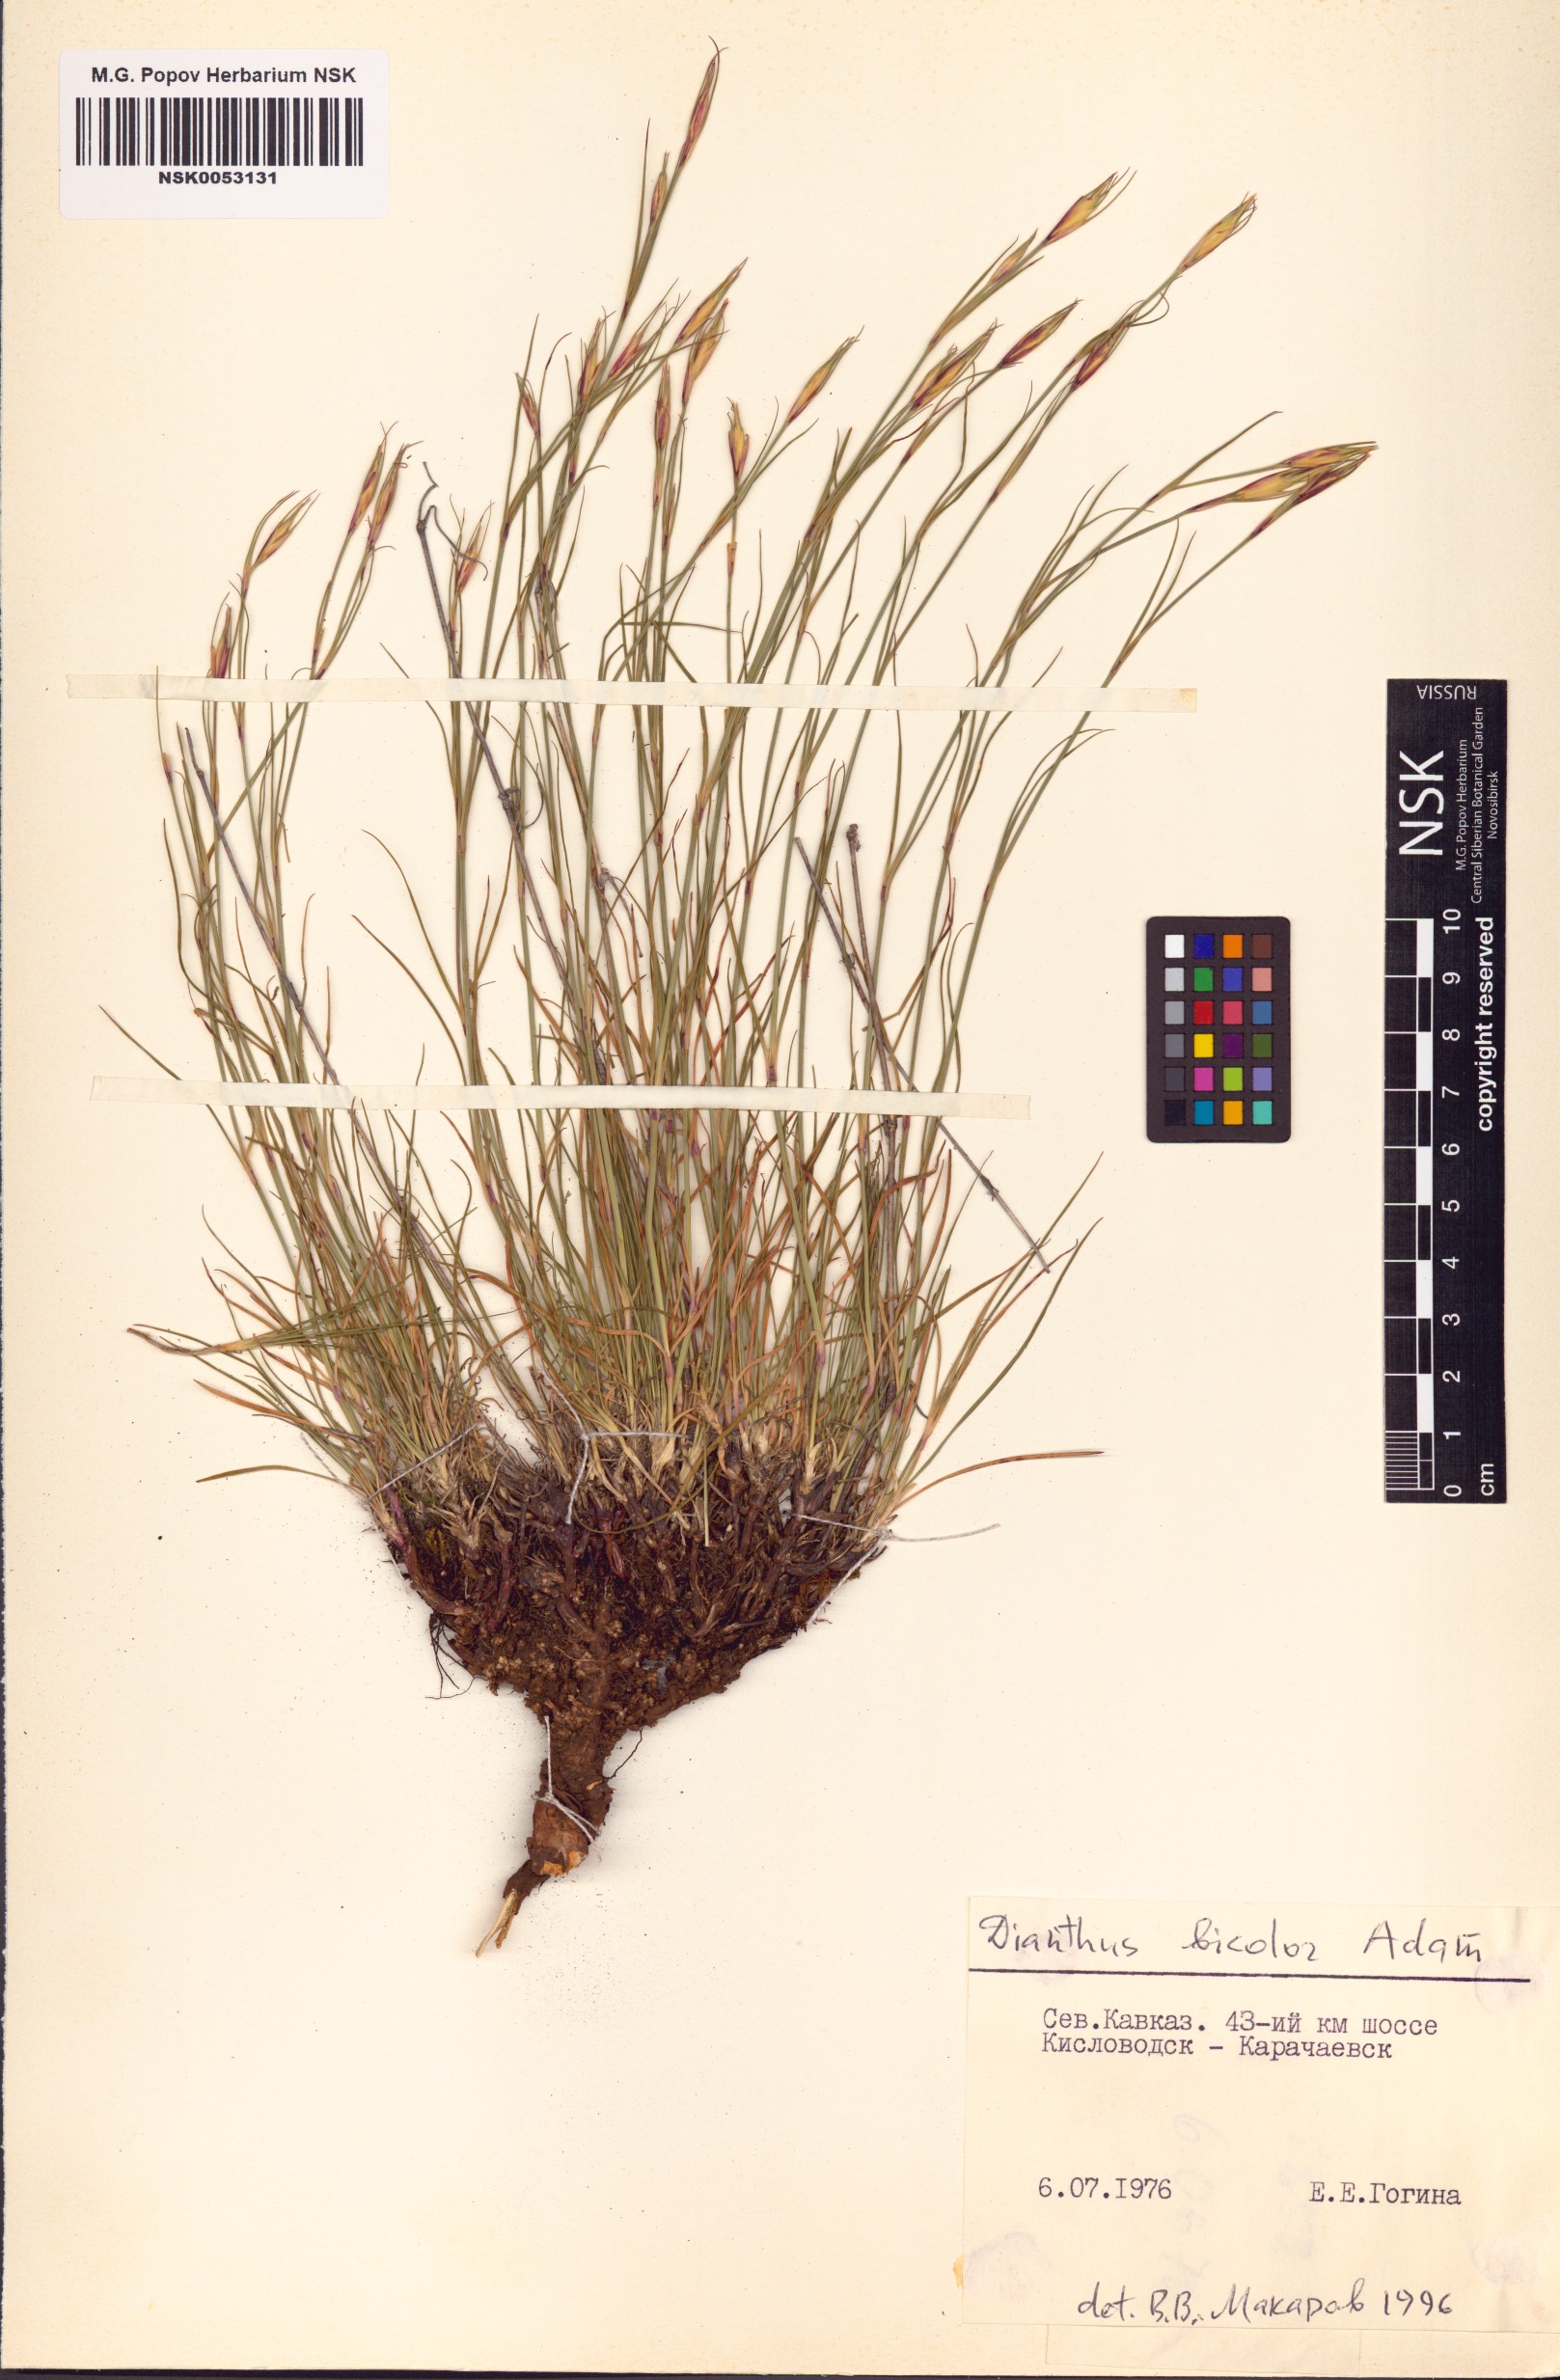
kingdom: Plantae
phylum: Tracheophyta
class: Magnoliopsida
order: Caryophyllales
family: Caryophyllaceae
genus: Dianthus
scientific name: Dianthus bicolor
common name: Bicolour pink
